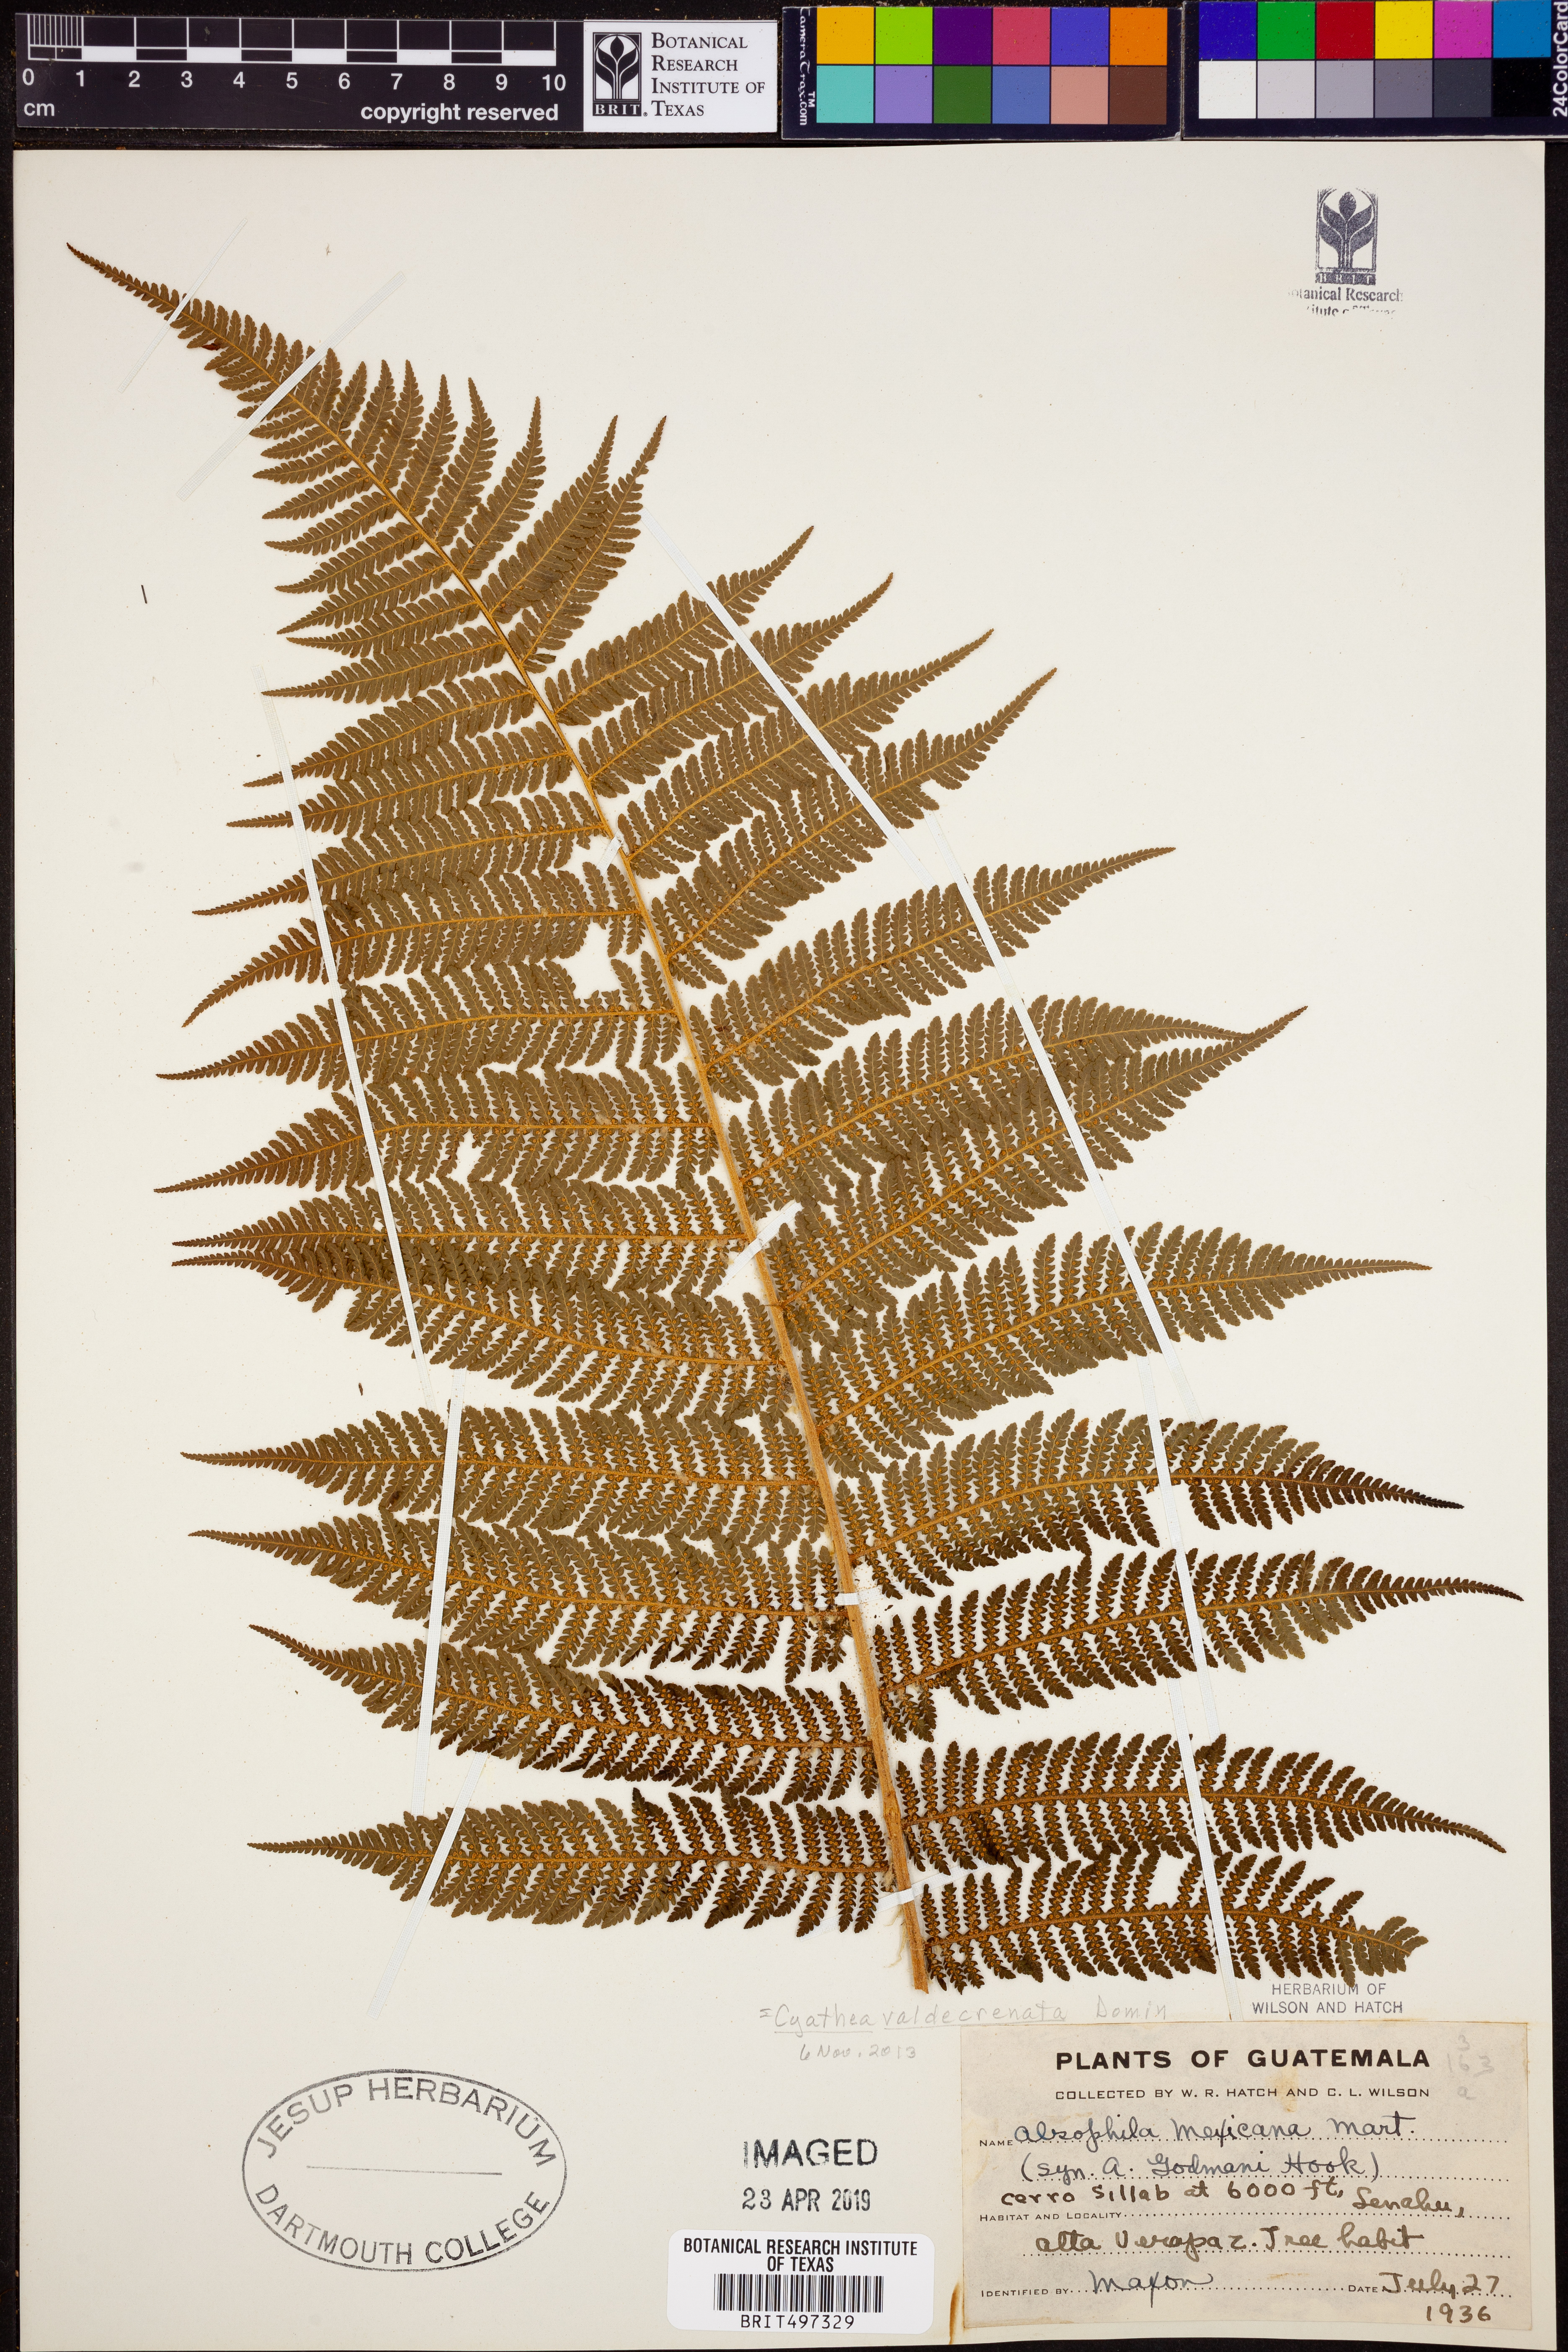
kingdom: Plantae
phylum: Tracheophyta
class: Polypodiopsida
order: Cyatheales
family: Cyatheaceae
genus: Cyathea
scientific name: Cyathea godmanii
